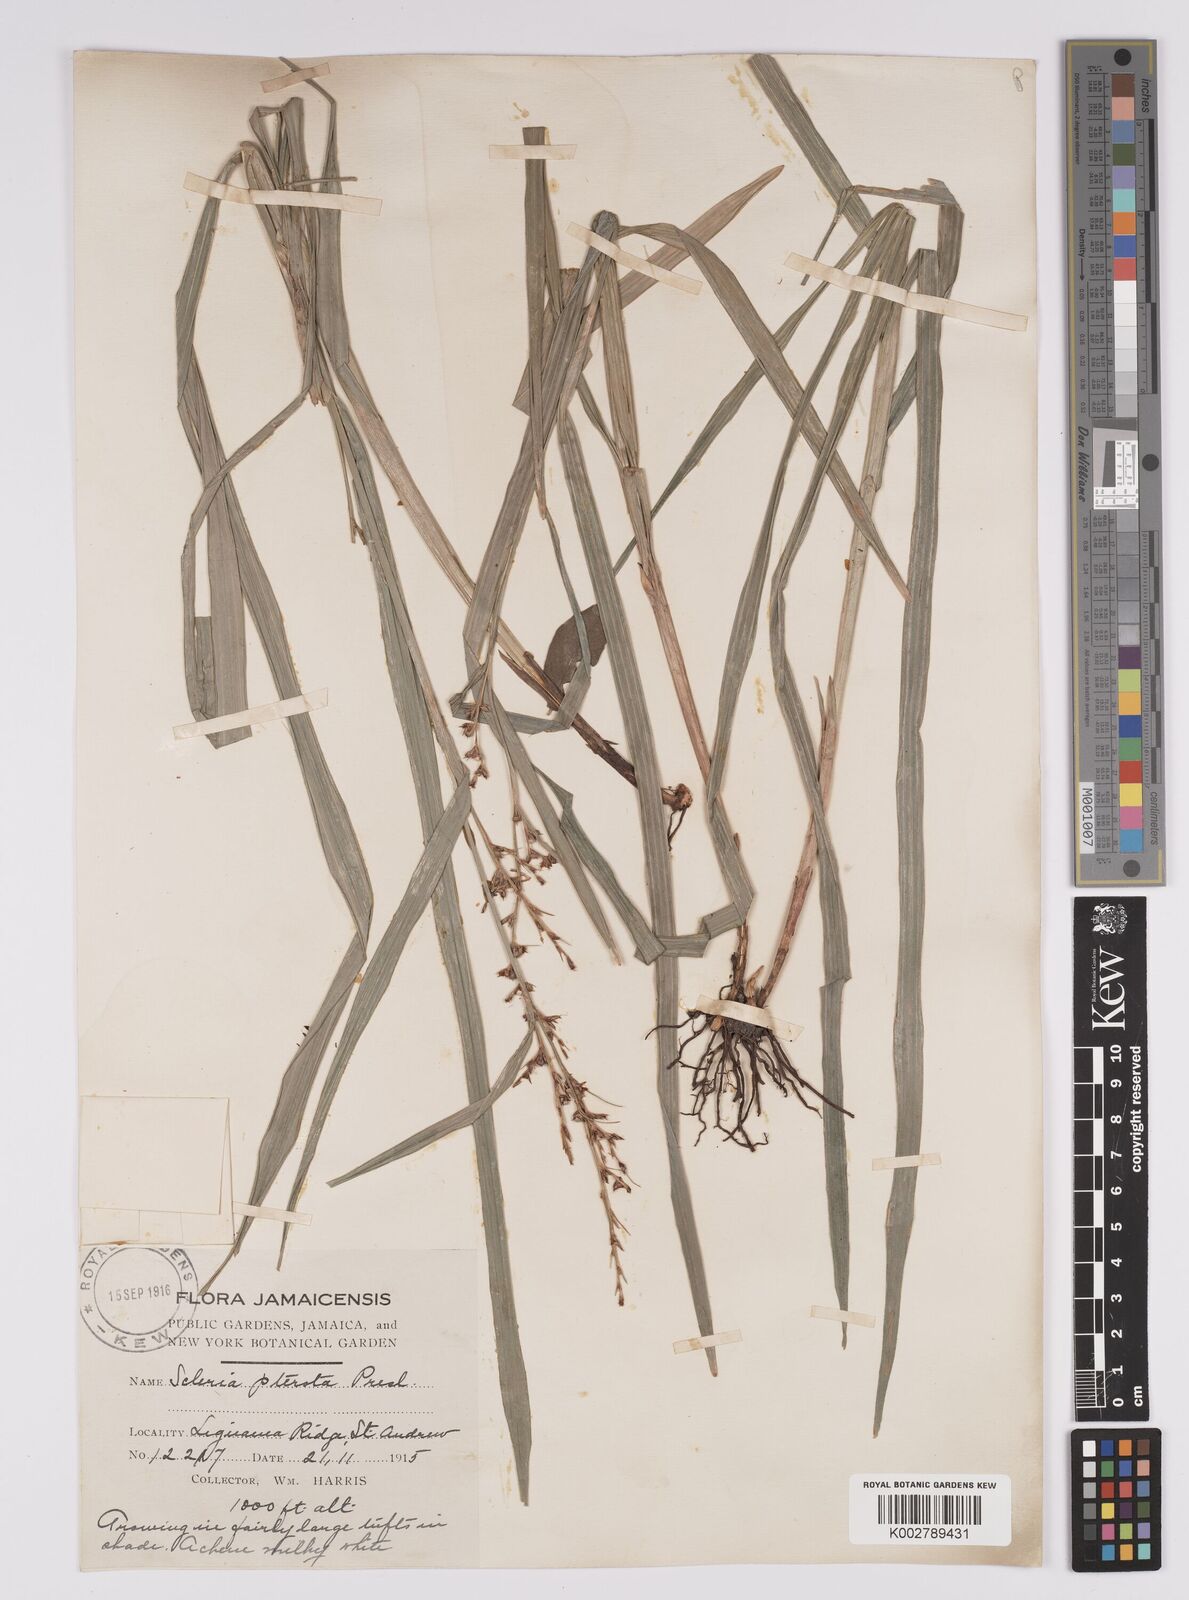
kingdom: Plantae
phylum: Tracheophyta
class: Liliopsida
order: Poales
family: Cyperaceae
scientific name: Cyperaceae
